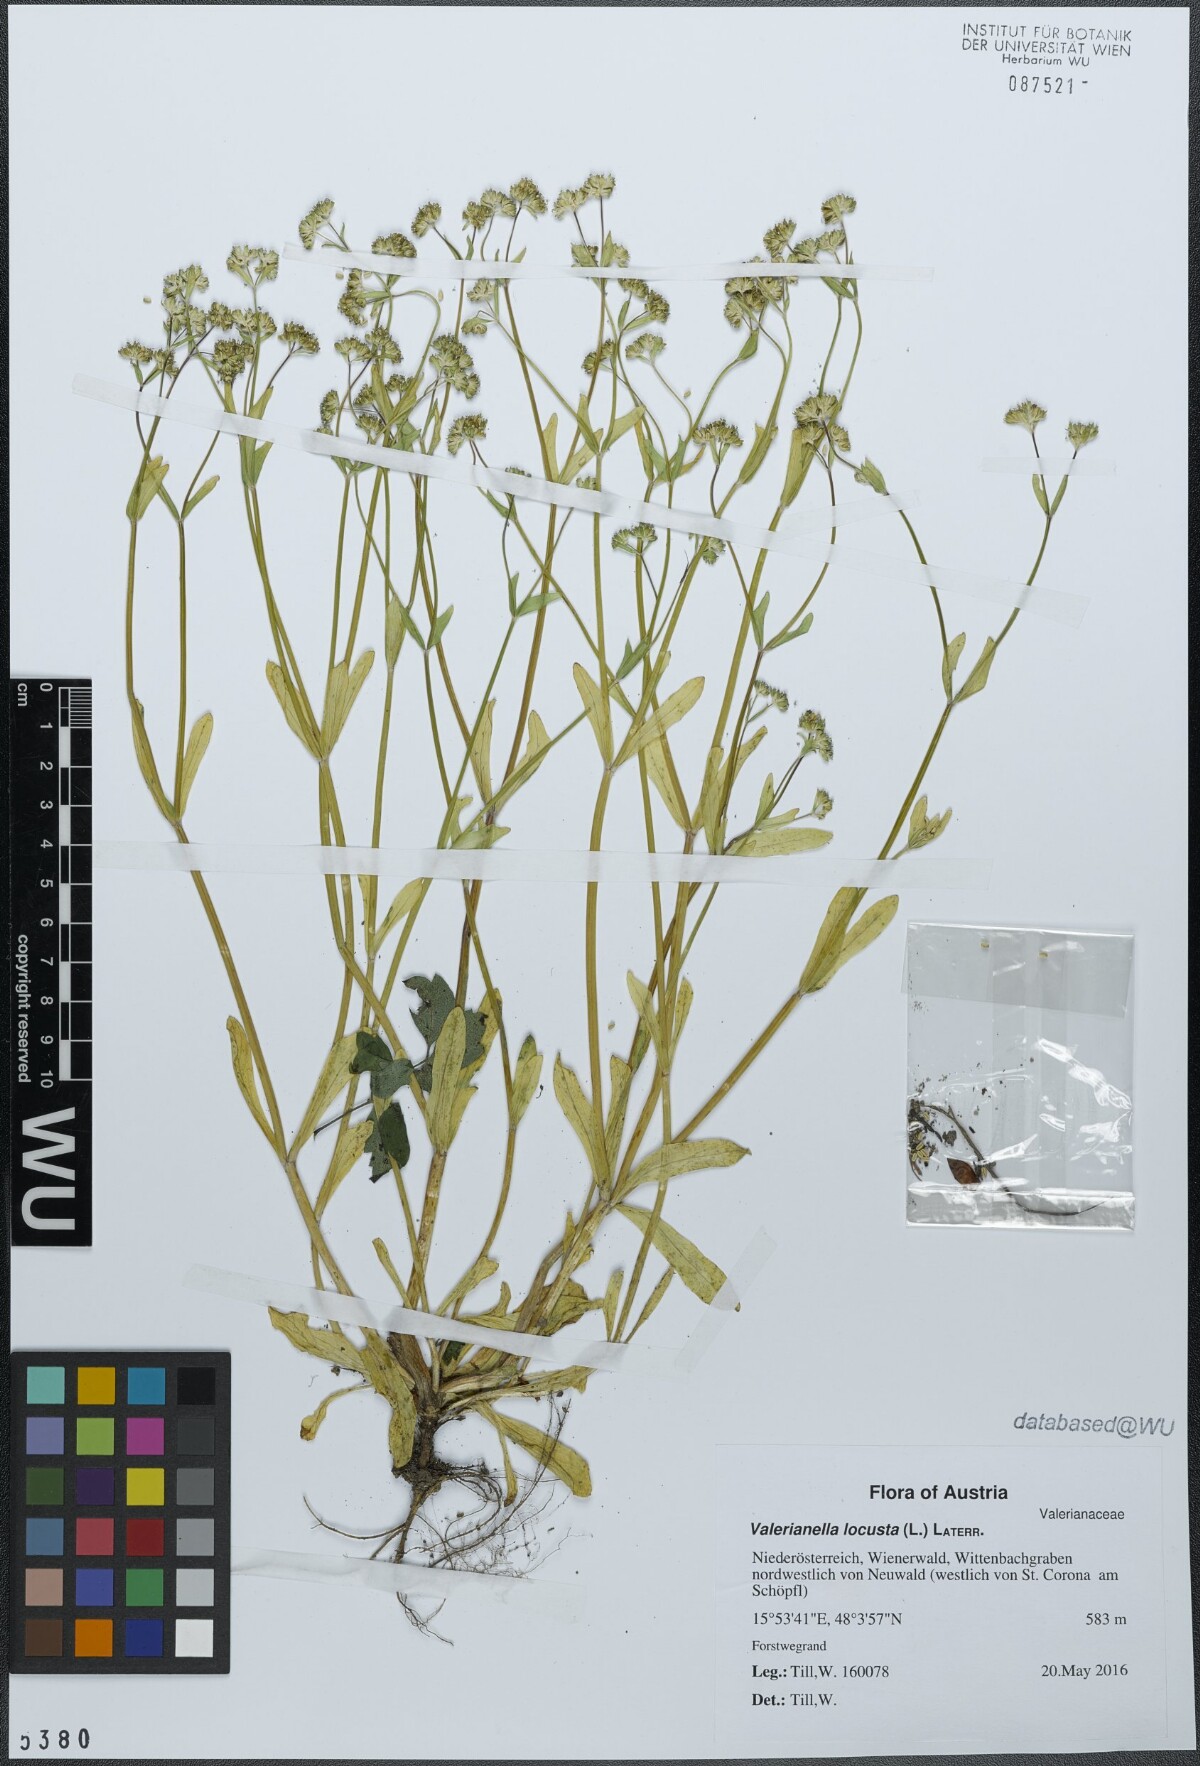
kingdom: Plantae
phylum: Tracheophyta
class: Magnoliopsida
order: Dipsacales
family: Caprifoliaceae
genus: Valerianella
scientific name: Valerianella locusta
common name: Common cornsalad
